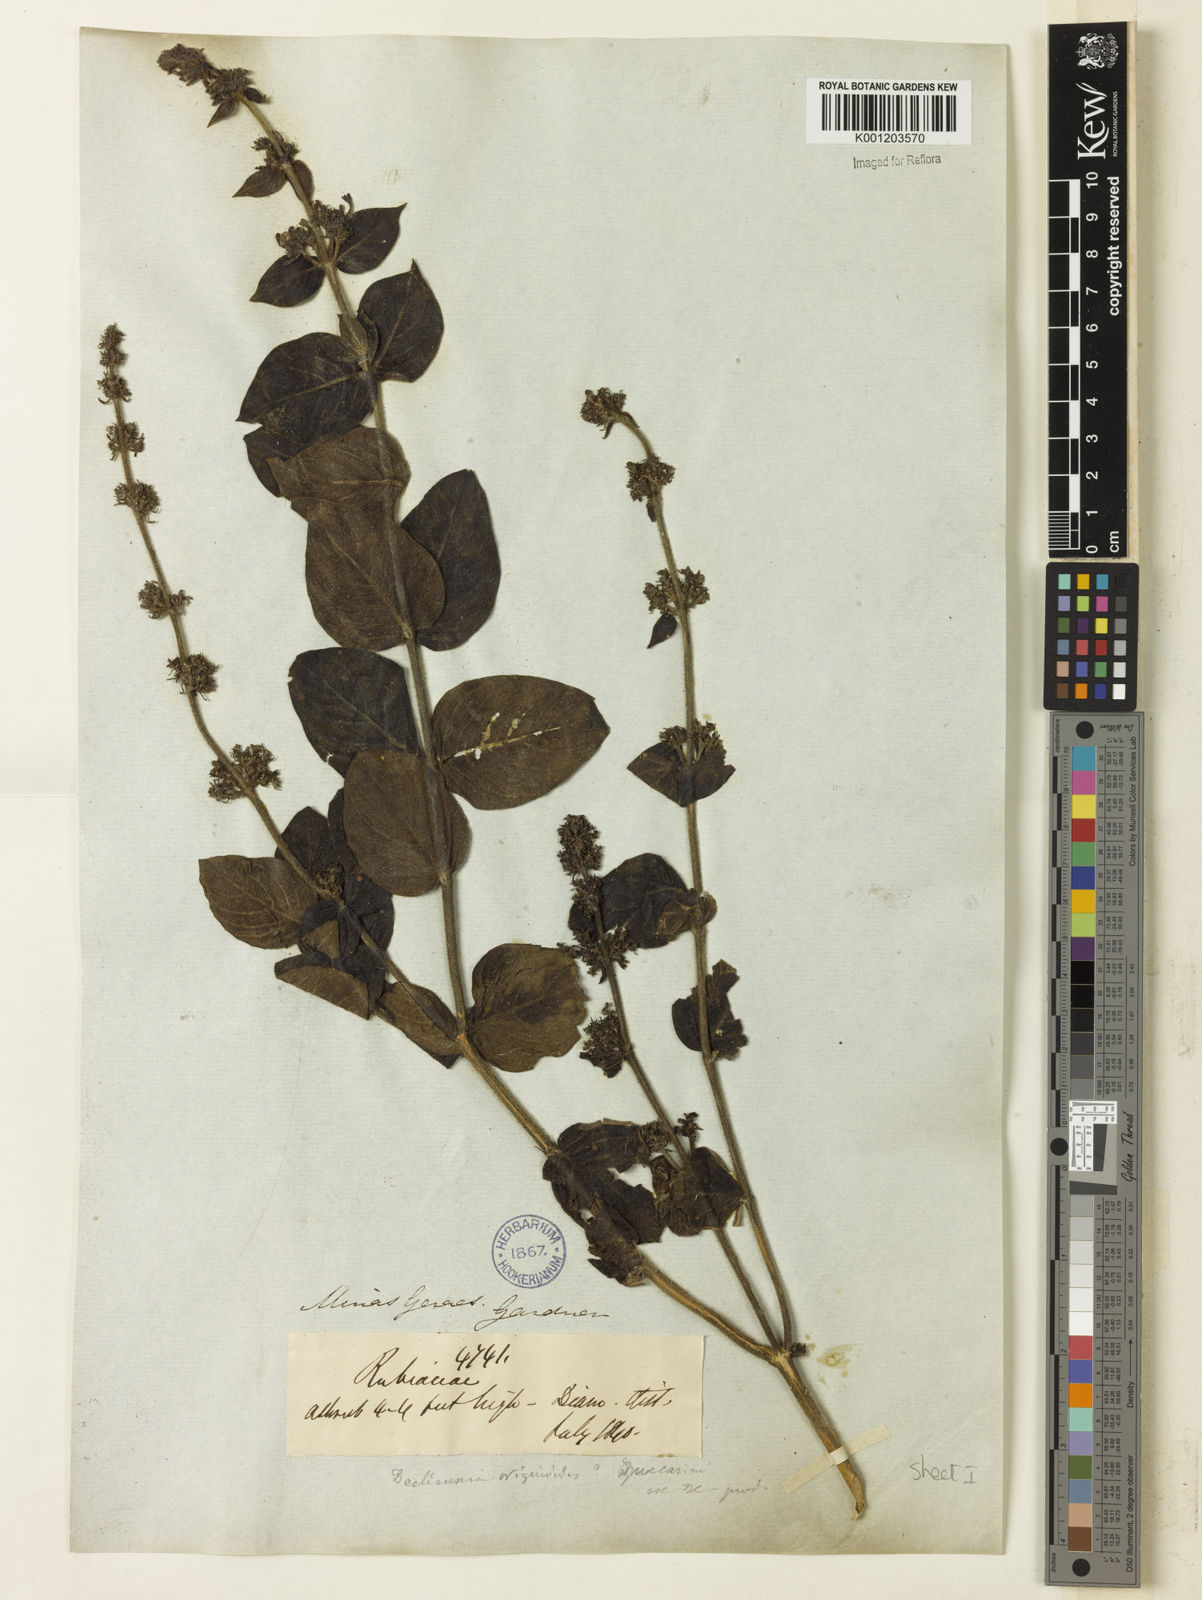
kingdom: Plantae
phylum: Tracheophyta
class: Magnoliopsida
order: Gentianales
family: Rubiaceae
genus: Declieuxia
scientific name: Declieuxia fruticosa
